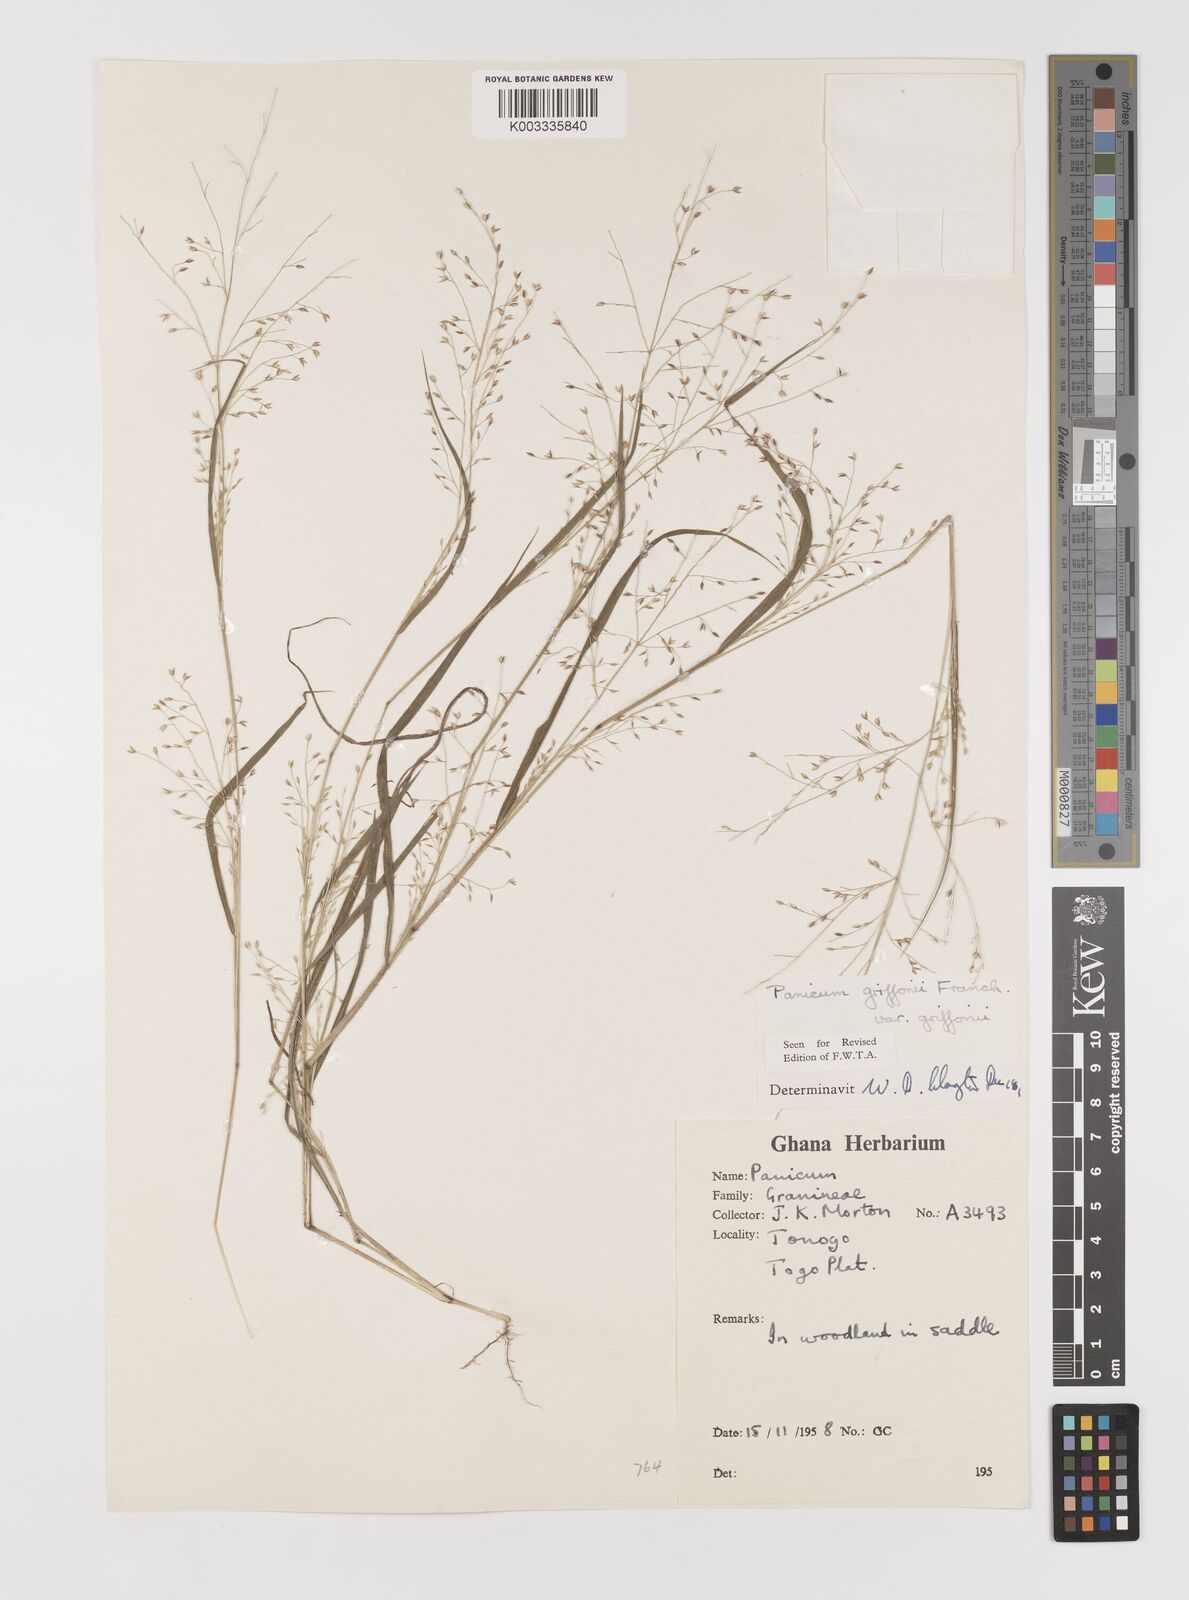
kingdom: Plantae
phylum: Tracheophyta
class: Liliopsida
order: Poales
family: Poaceae
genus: Panicum
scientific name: Panicum griffonii
